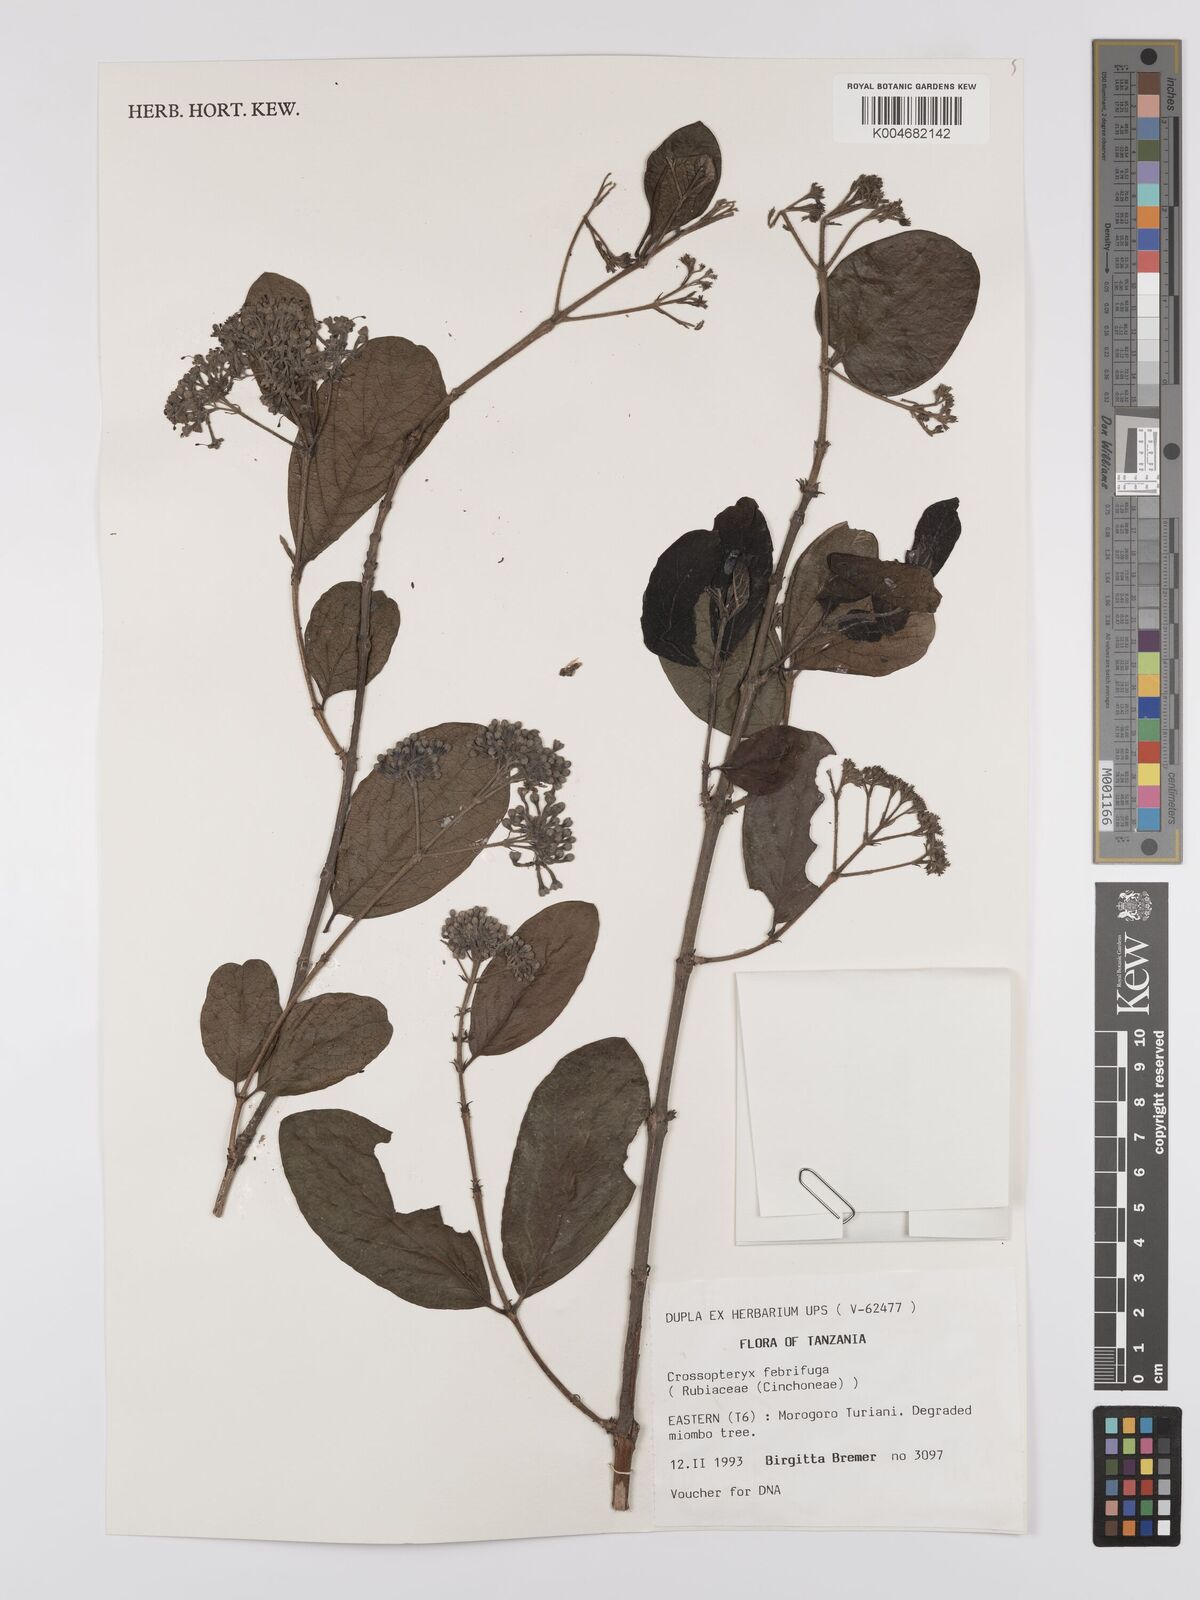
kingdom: Plantae
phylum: Tracheophyta
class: Magnoliopsida
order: Gentianales
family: Rubiaceae
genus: Crossopteryx
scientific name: Crossopteryx febrifuga
